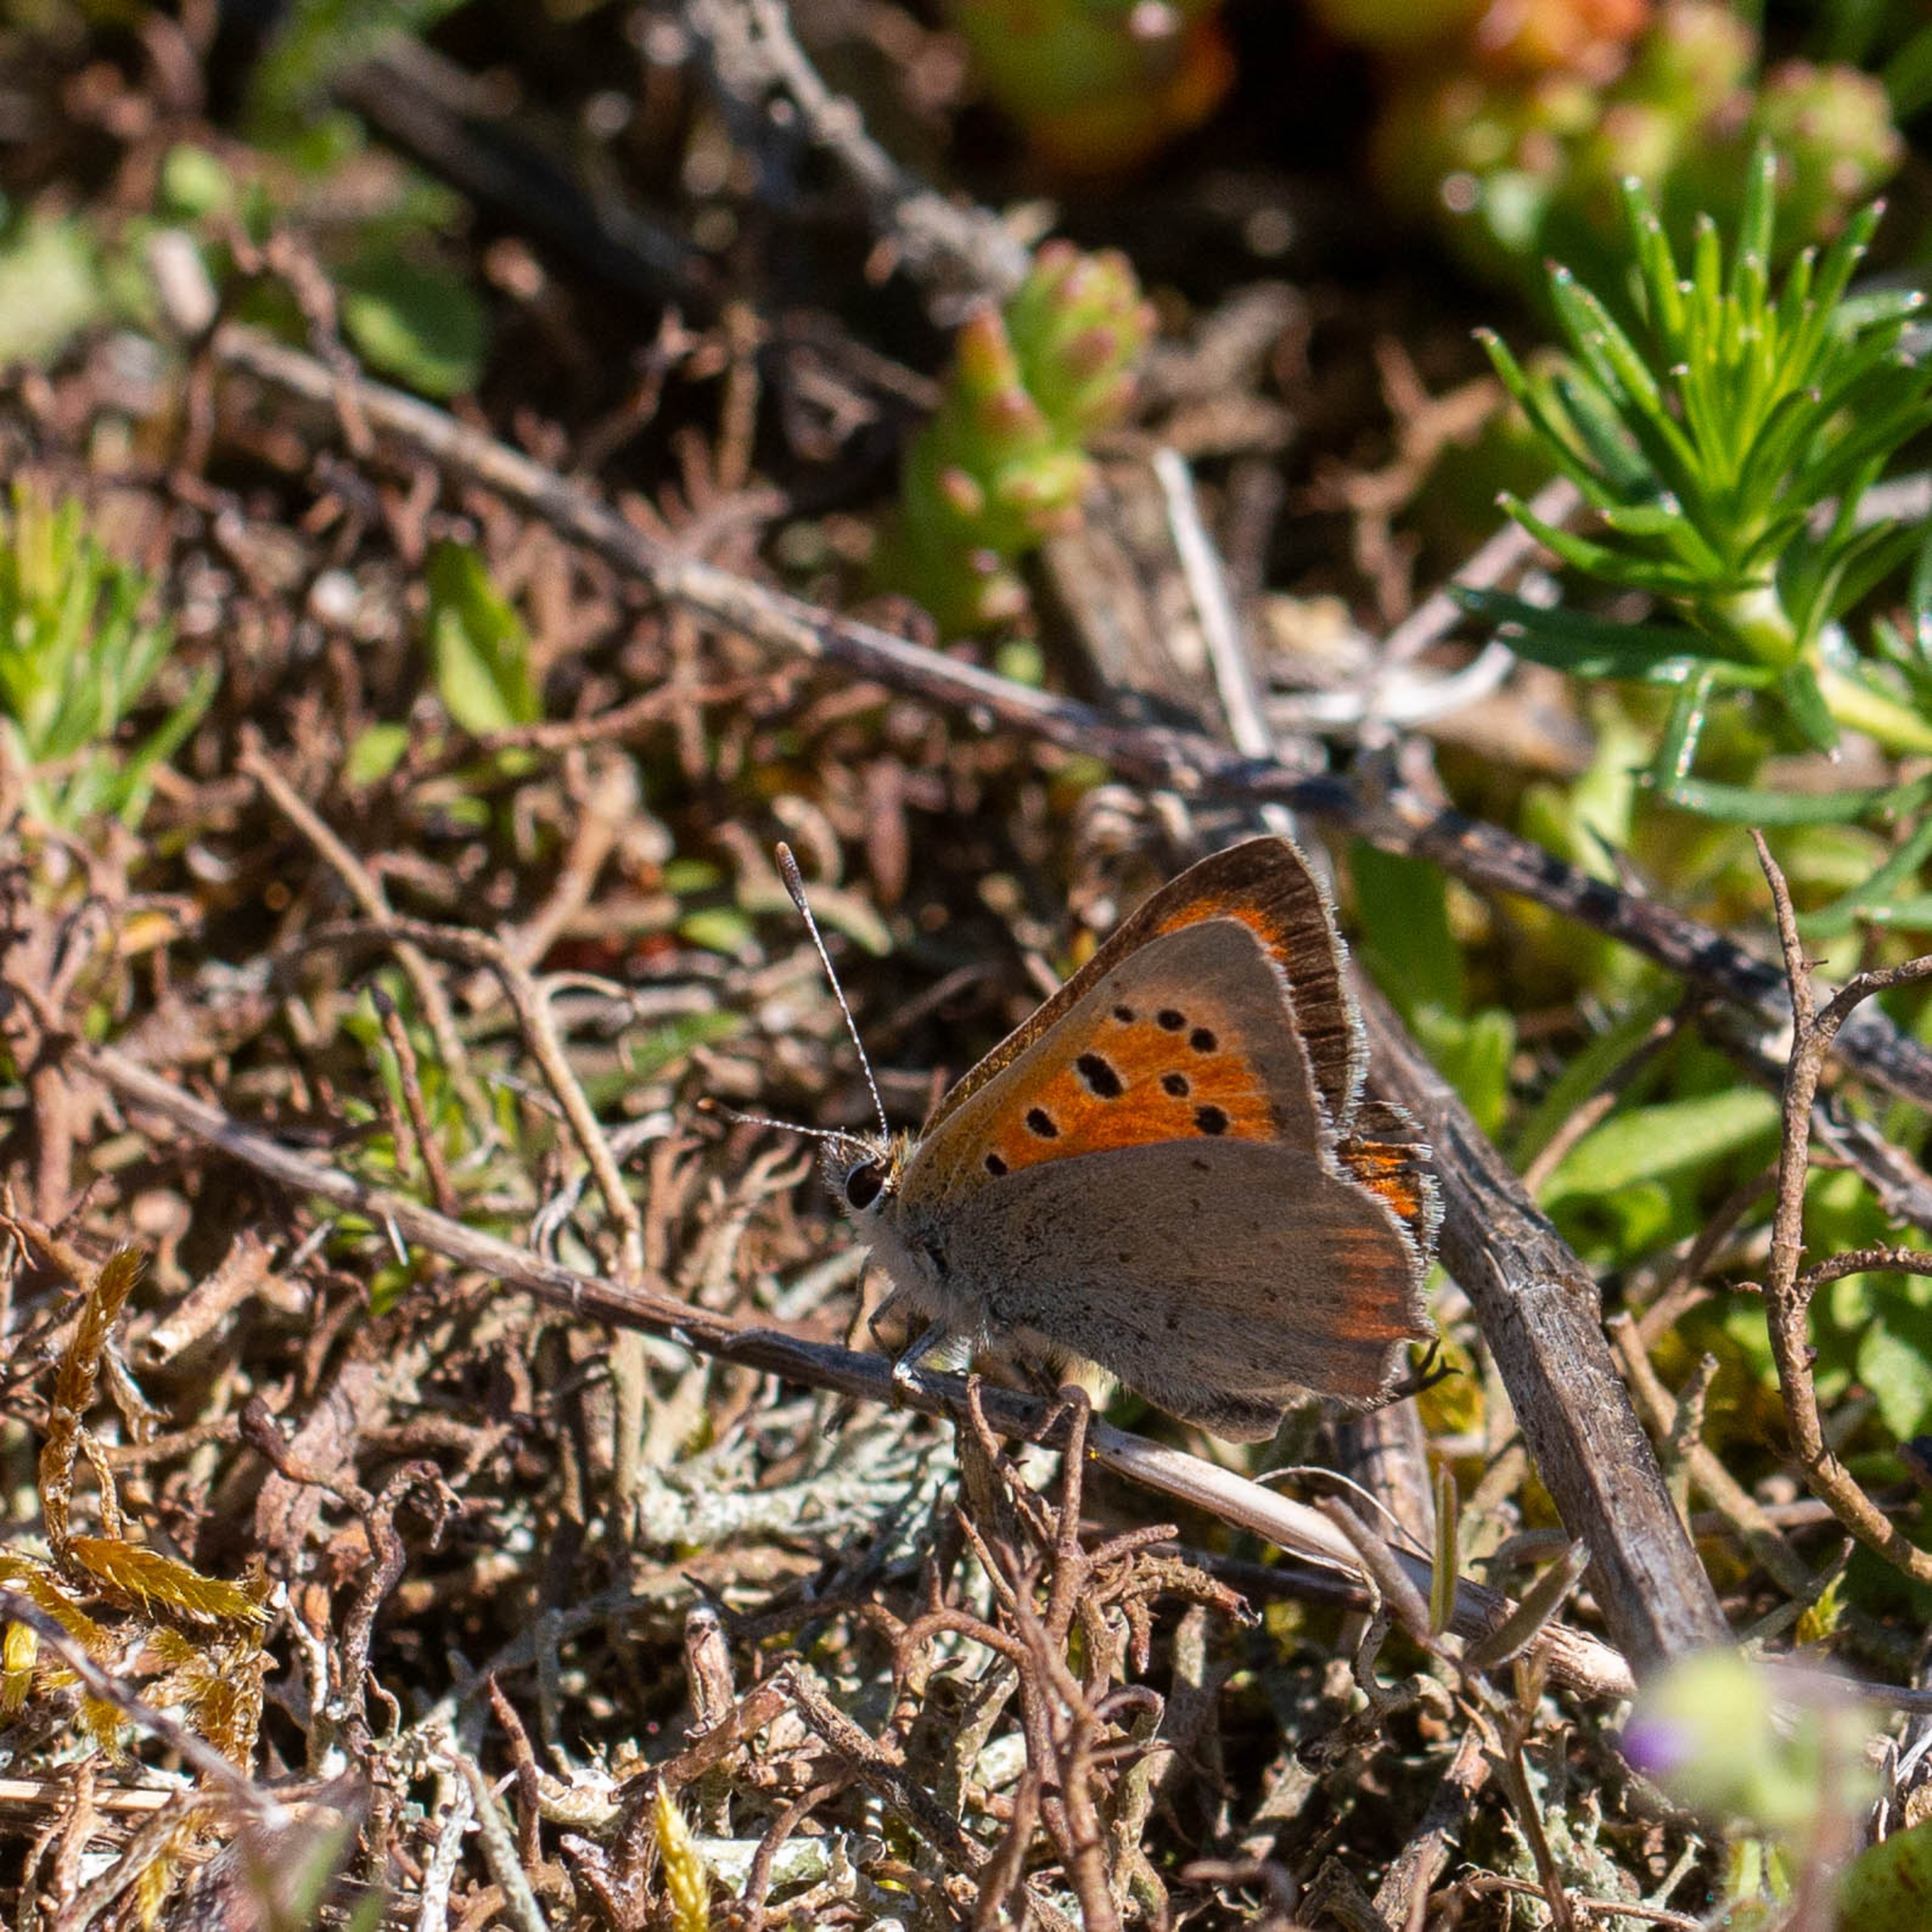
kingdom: Animalia
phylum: Arthropoda
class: Insecta
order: Lepidoptera
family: Lycaenidae
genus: Lycaena
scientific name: Lycaena phlaeas
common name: Lille ildfugl
